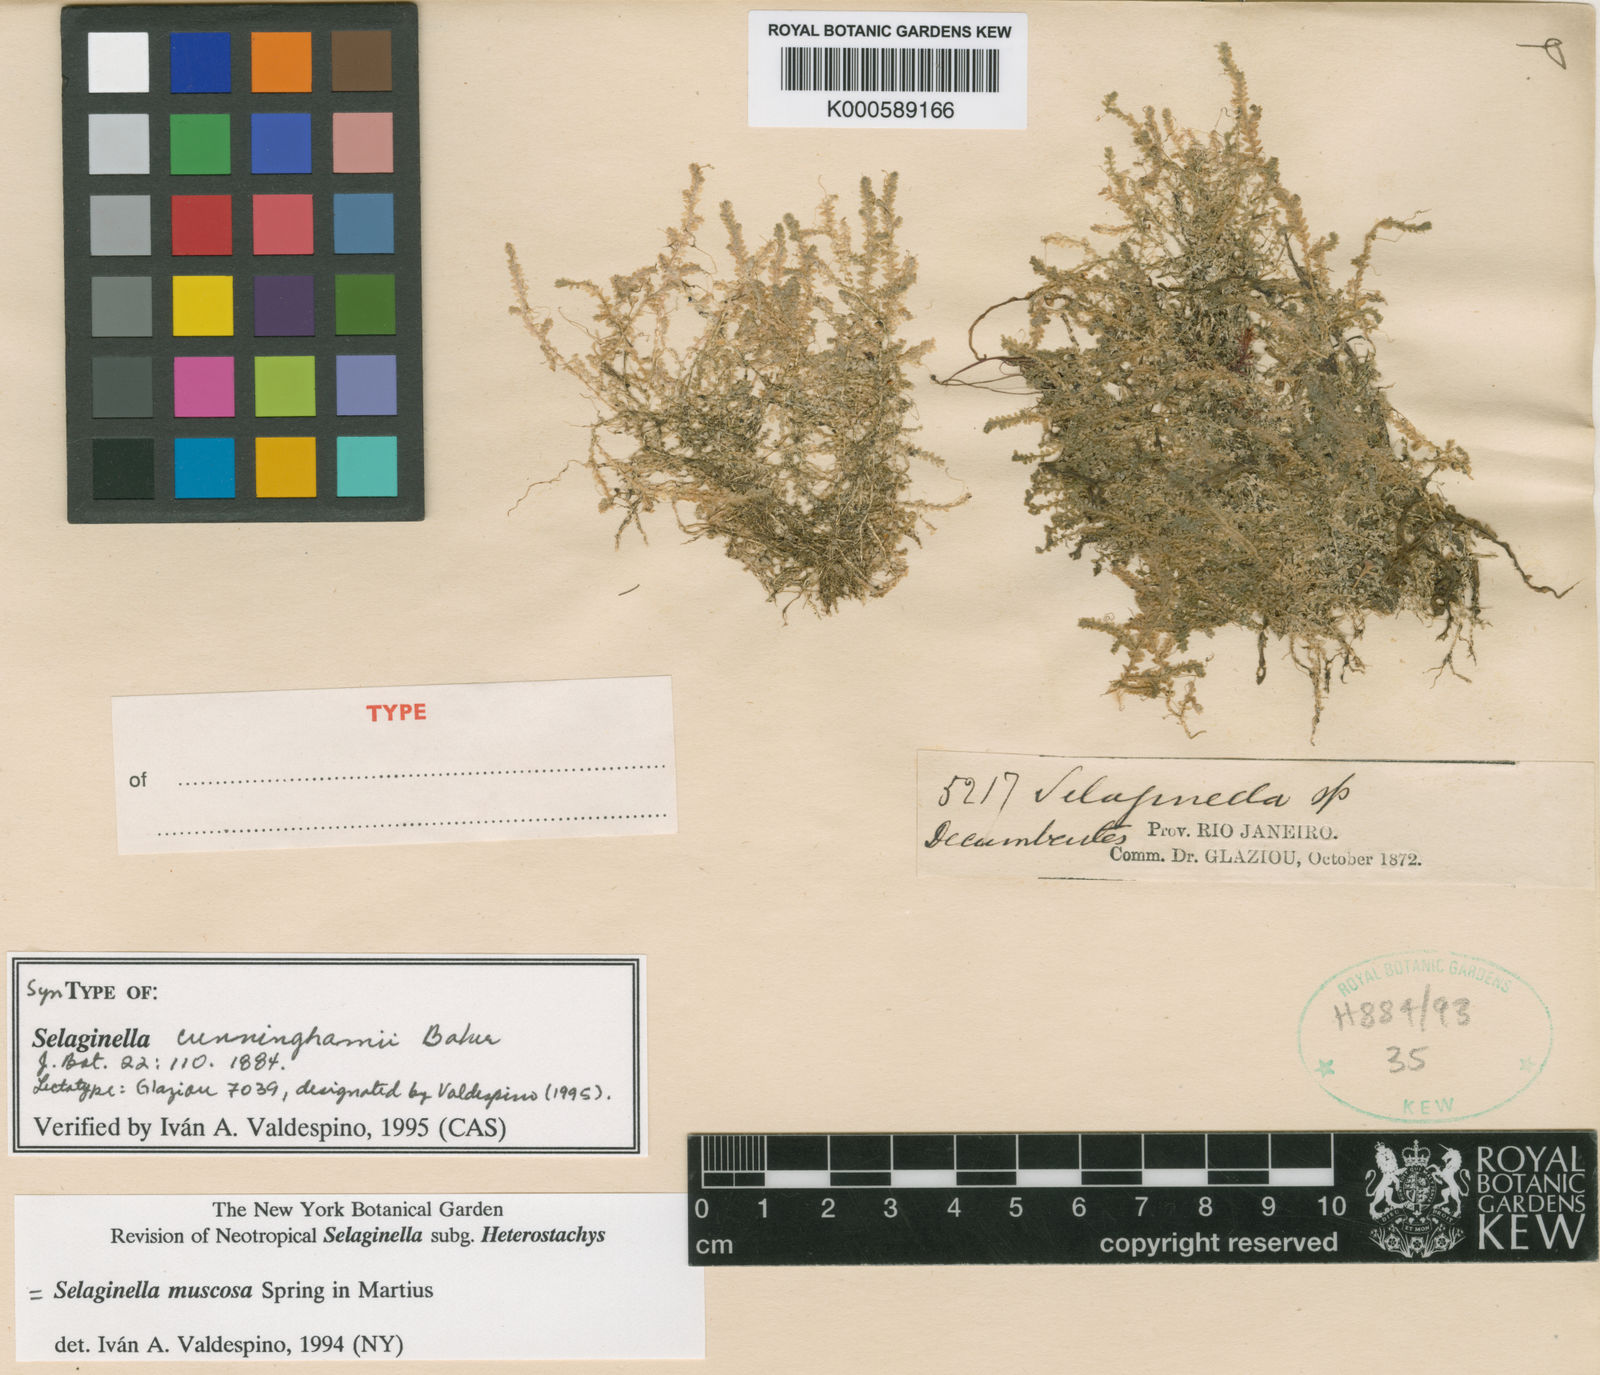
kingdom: Plantae
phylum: Tracheophyta
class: Lycopodiopsida
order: Selaginellales
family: Selaginellaceae
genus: Selaginella
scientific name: Selaginella muscosa
